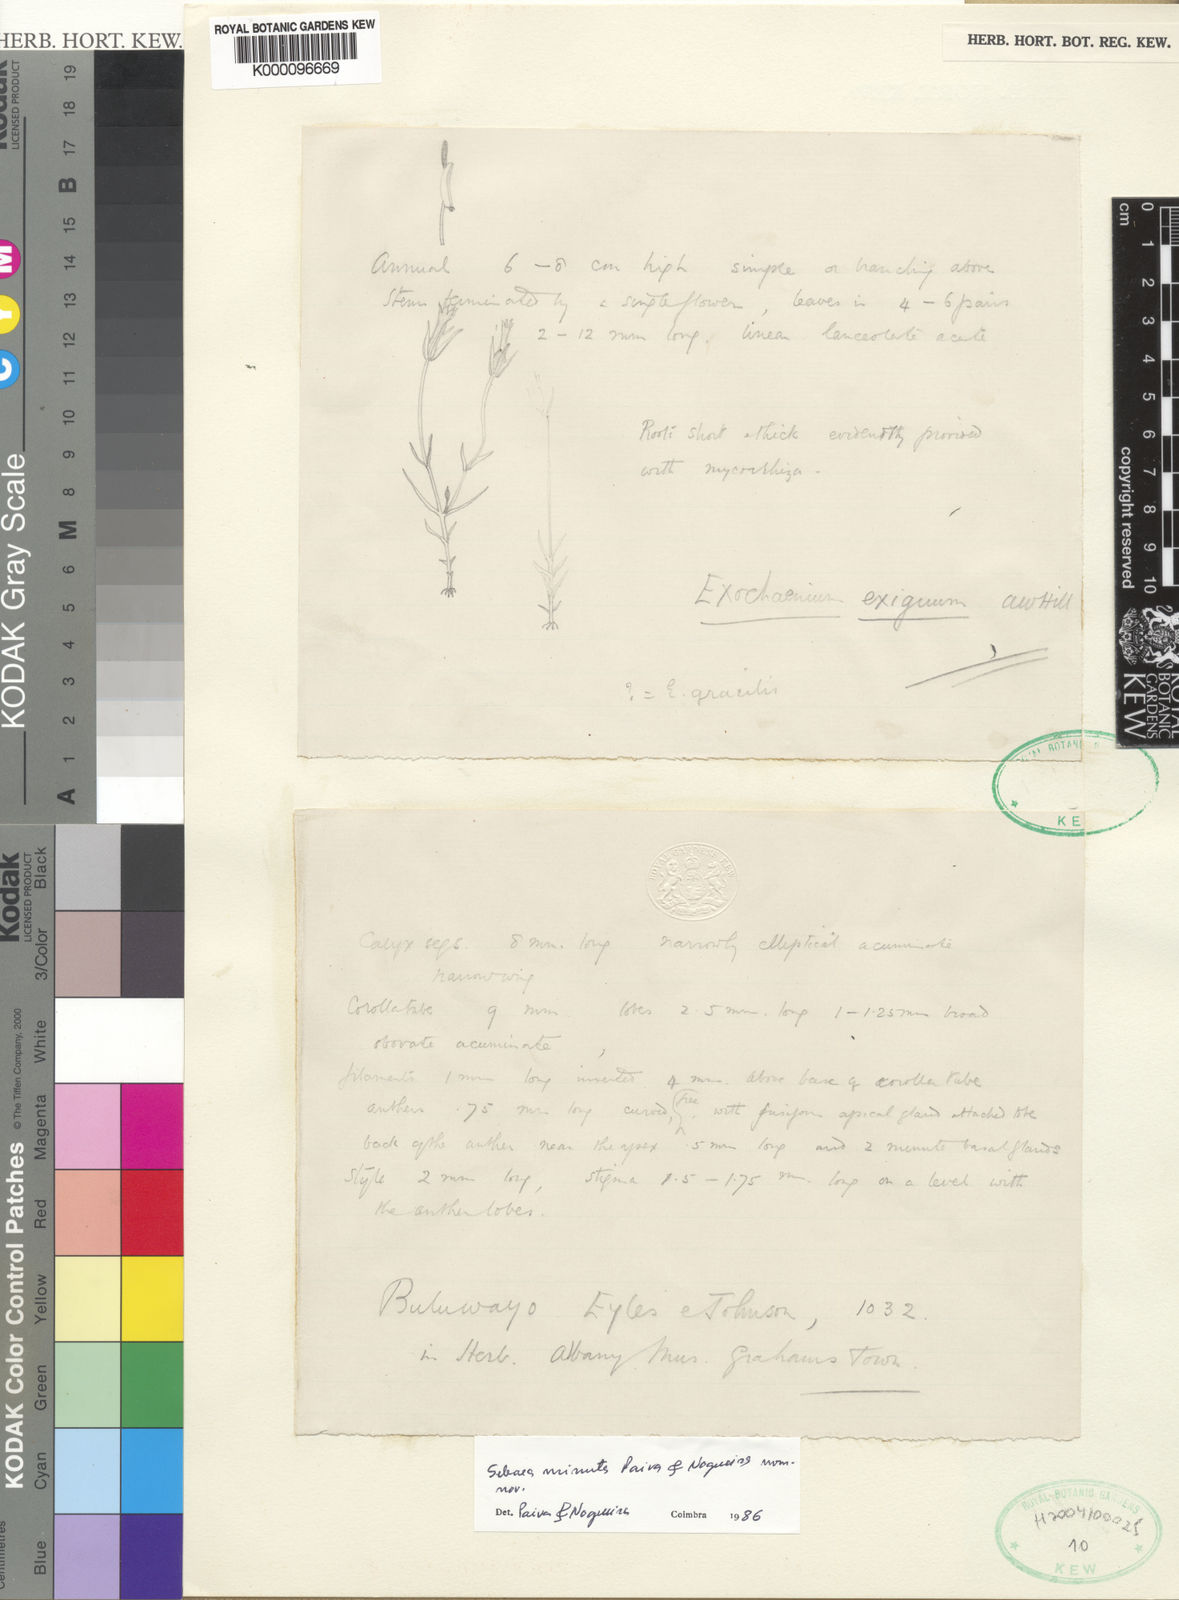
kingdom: Plantae
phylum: Tracheophyta
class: Magnoliopsida
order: Gentianales
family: Gentianaceae
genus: Exochaenium
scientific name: Exochaenium exiguum
